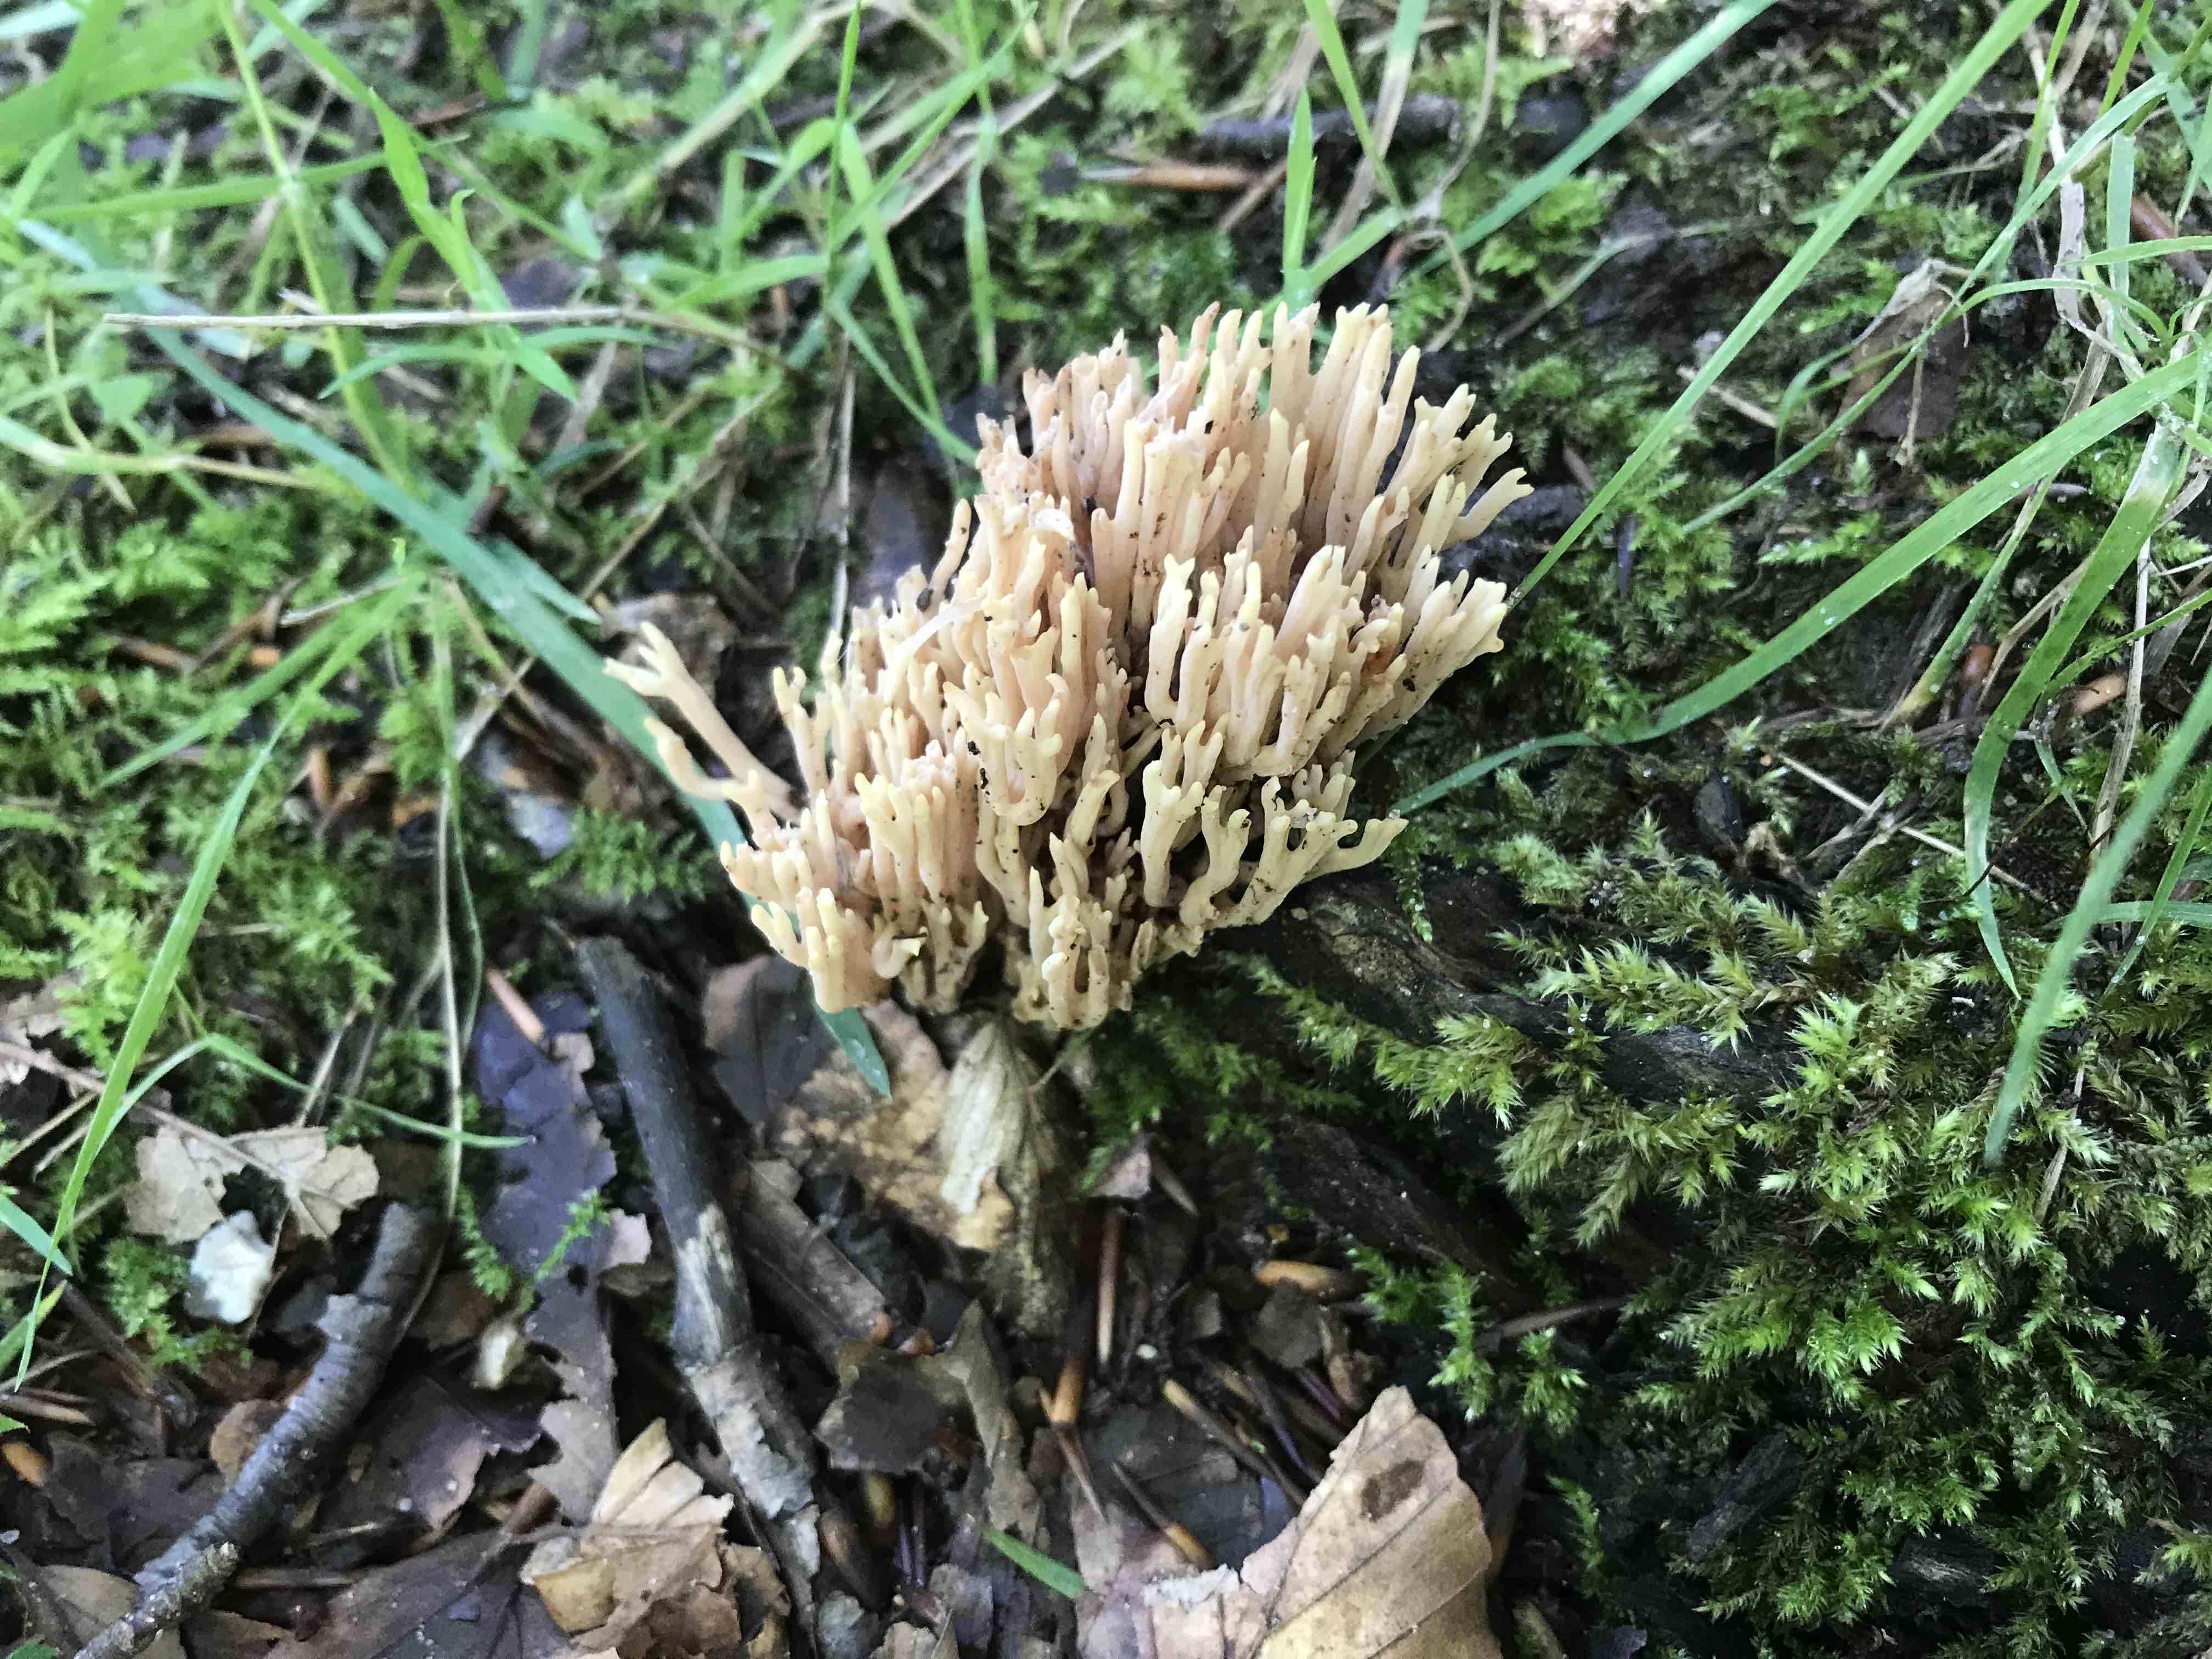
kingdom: Fungi
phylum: Basidiomycota
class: Agaricomycetes
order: Gomphales
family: Gomphaceae
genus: Ramaria
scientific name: Ramaria stricta
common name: rank koralsvamp
